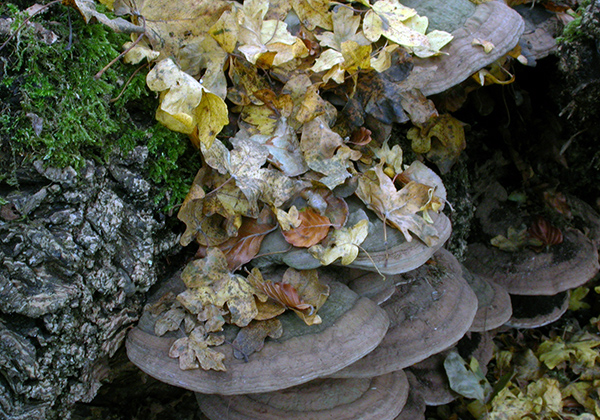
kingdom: Fungi
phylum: Basidiomycota
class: Agaricomycetes
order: Polyporales
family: Polyporaceae
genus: Ganoderma
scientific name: Ganoderma applanatum
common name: flad lakporesvamp
